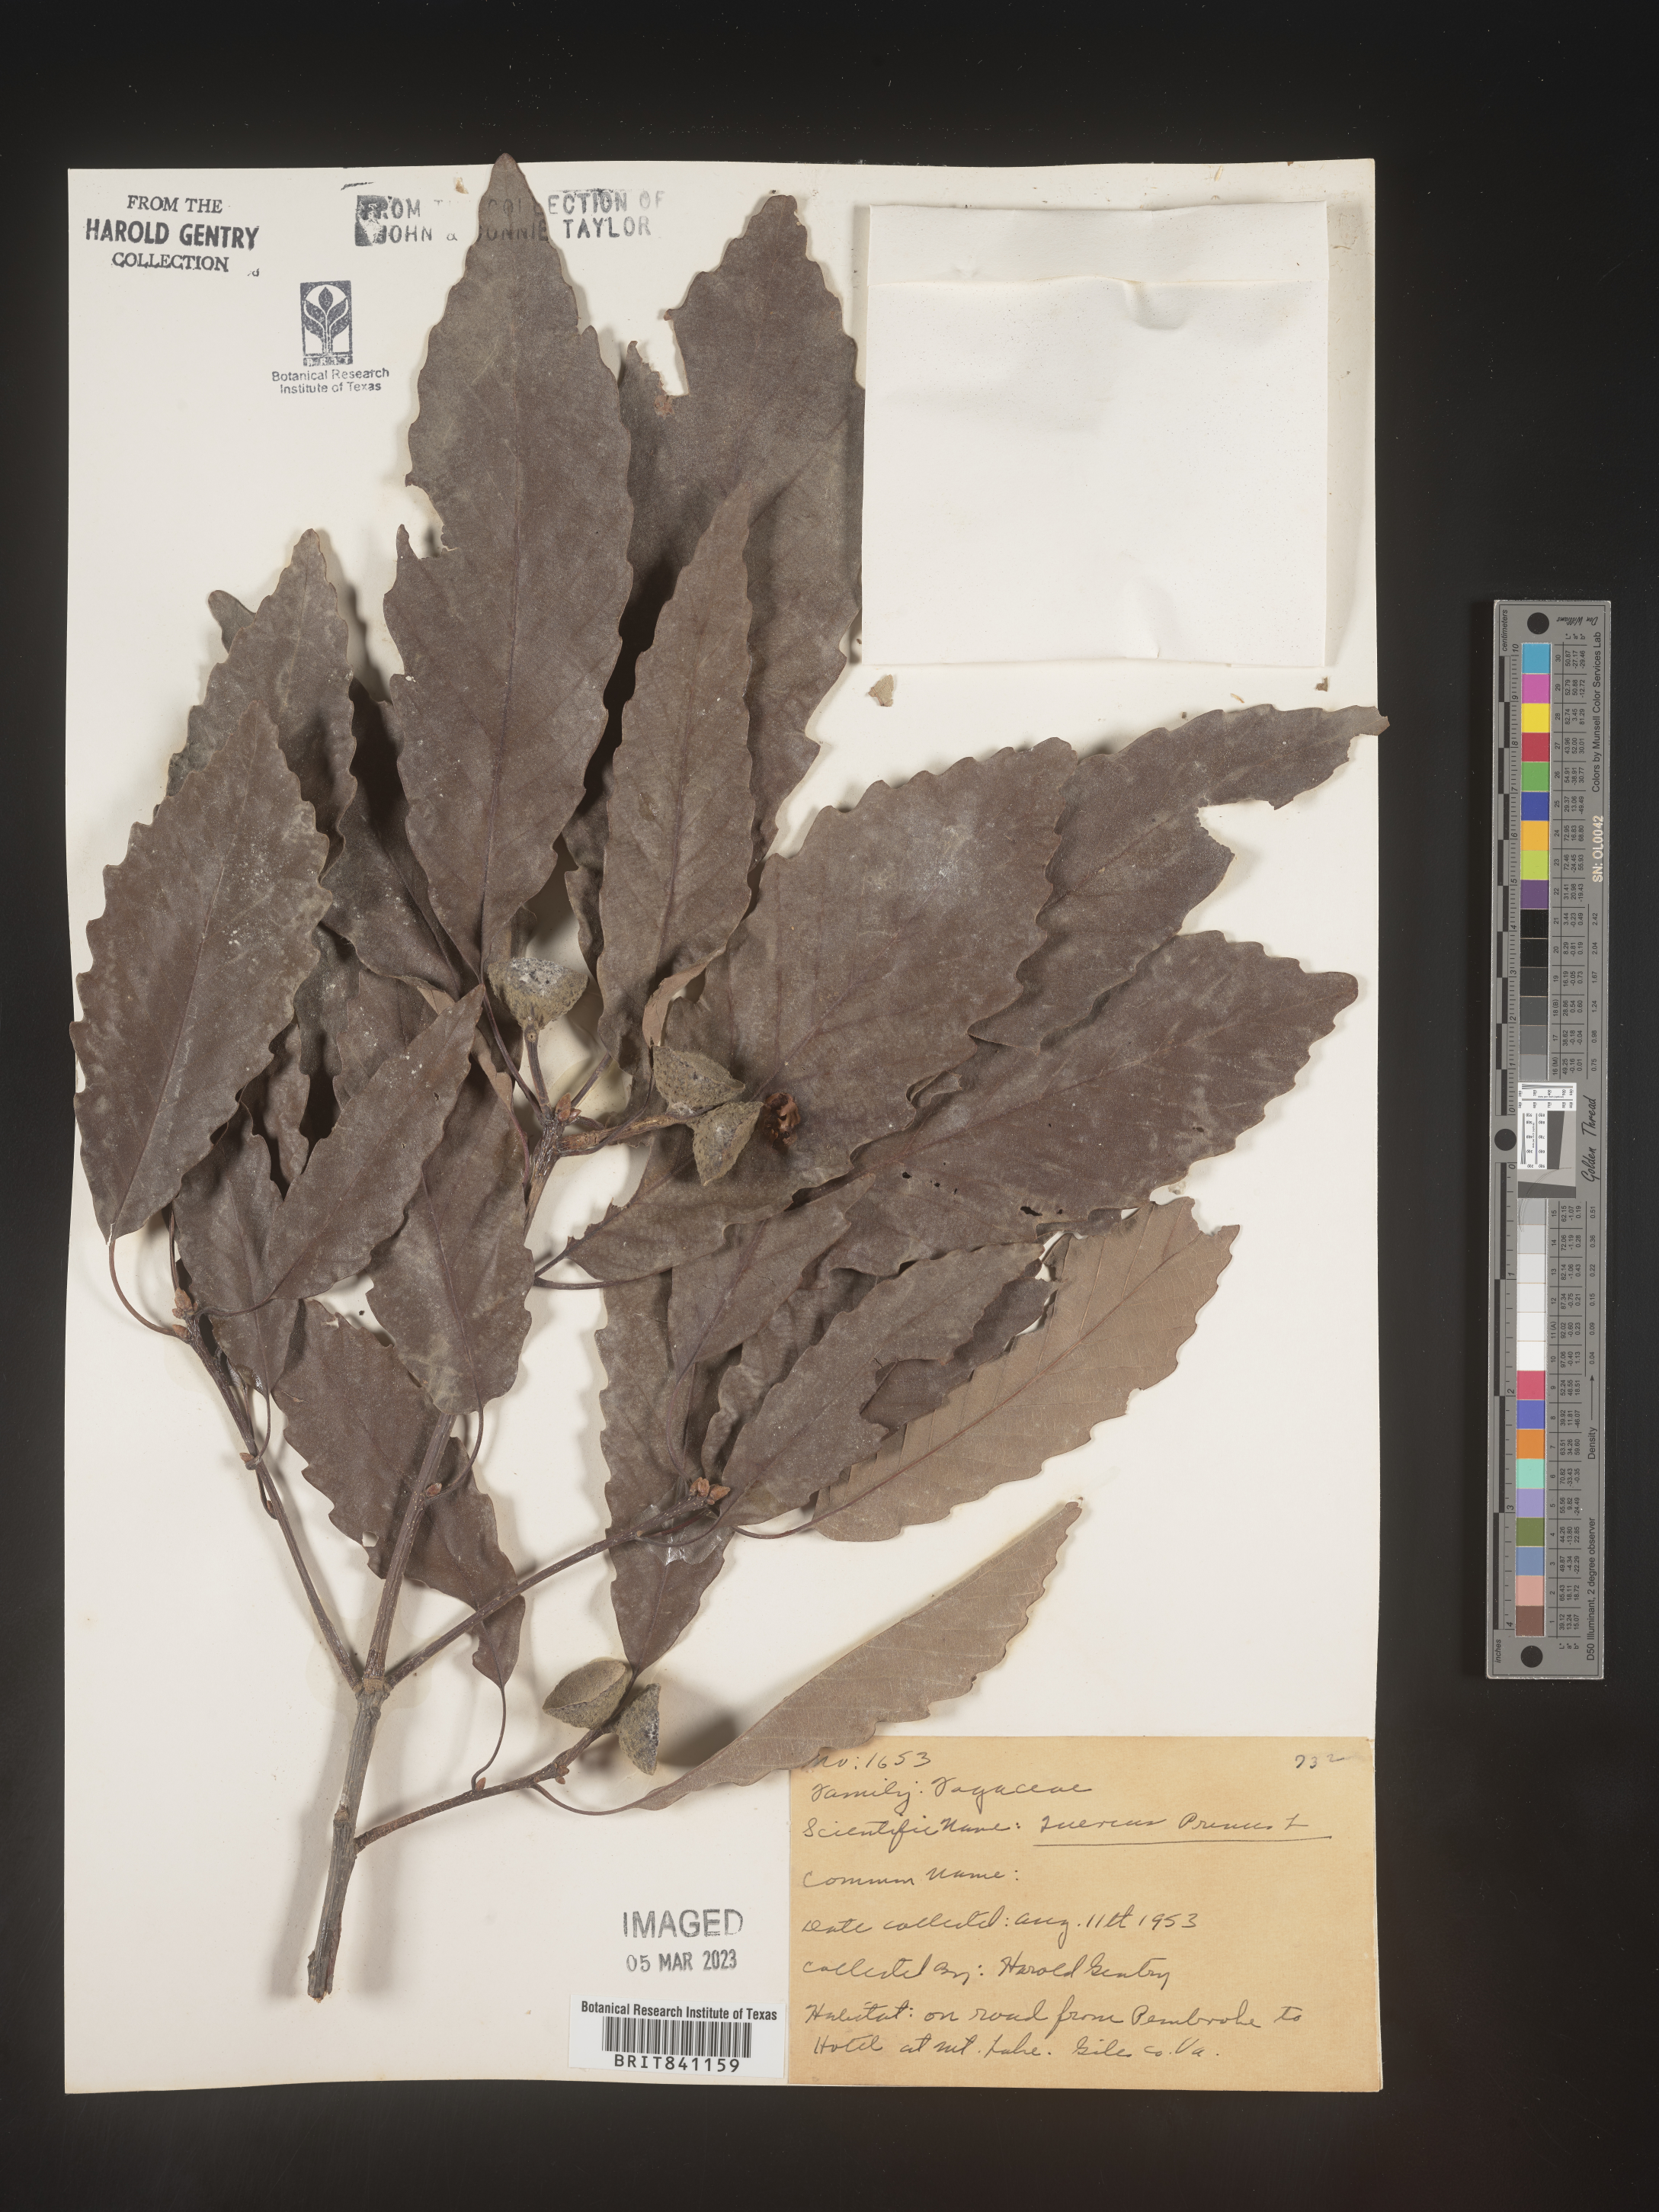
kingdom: Plantae
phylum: Tracheophyta
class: Magnoliopsida
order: Fagales
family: Fagaceae
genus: Quercus
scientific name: Quercus michauxii
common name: Swamp chestnut oak
